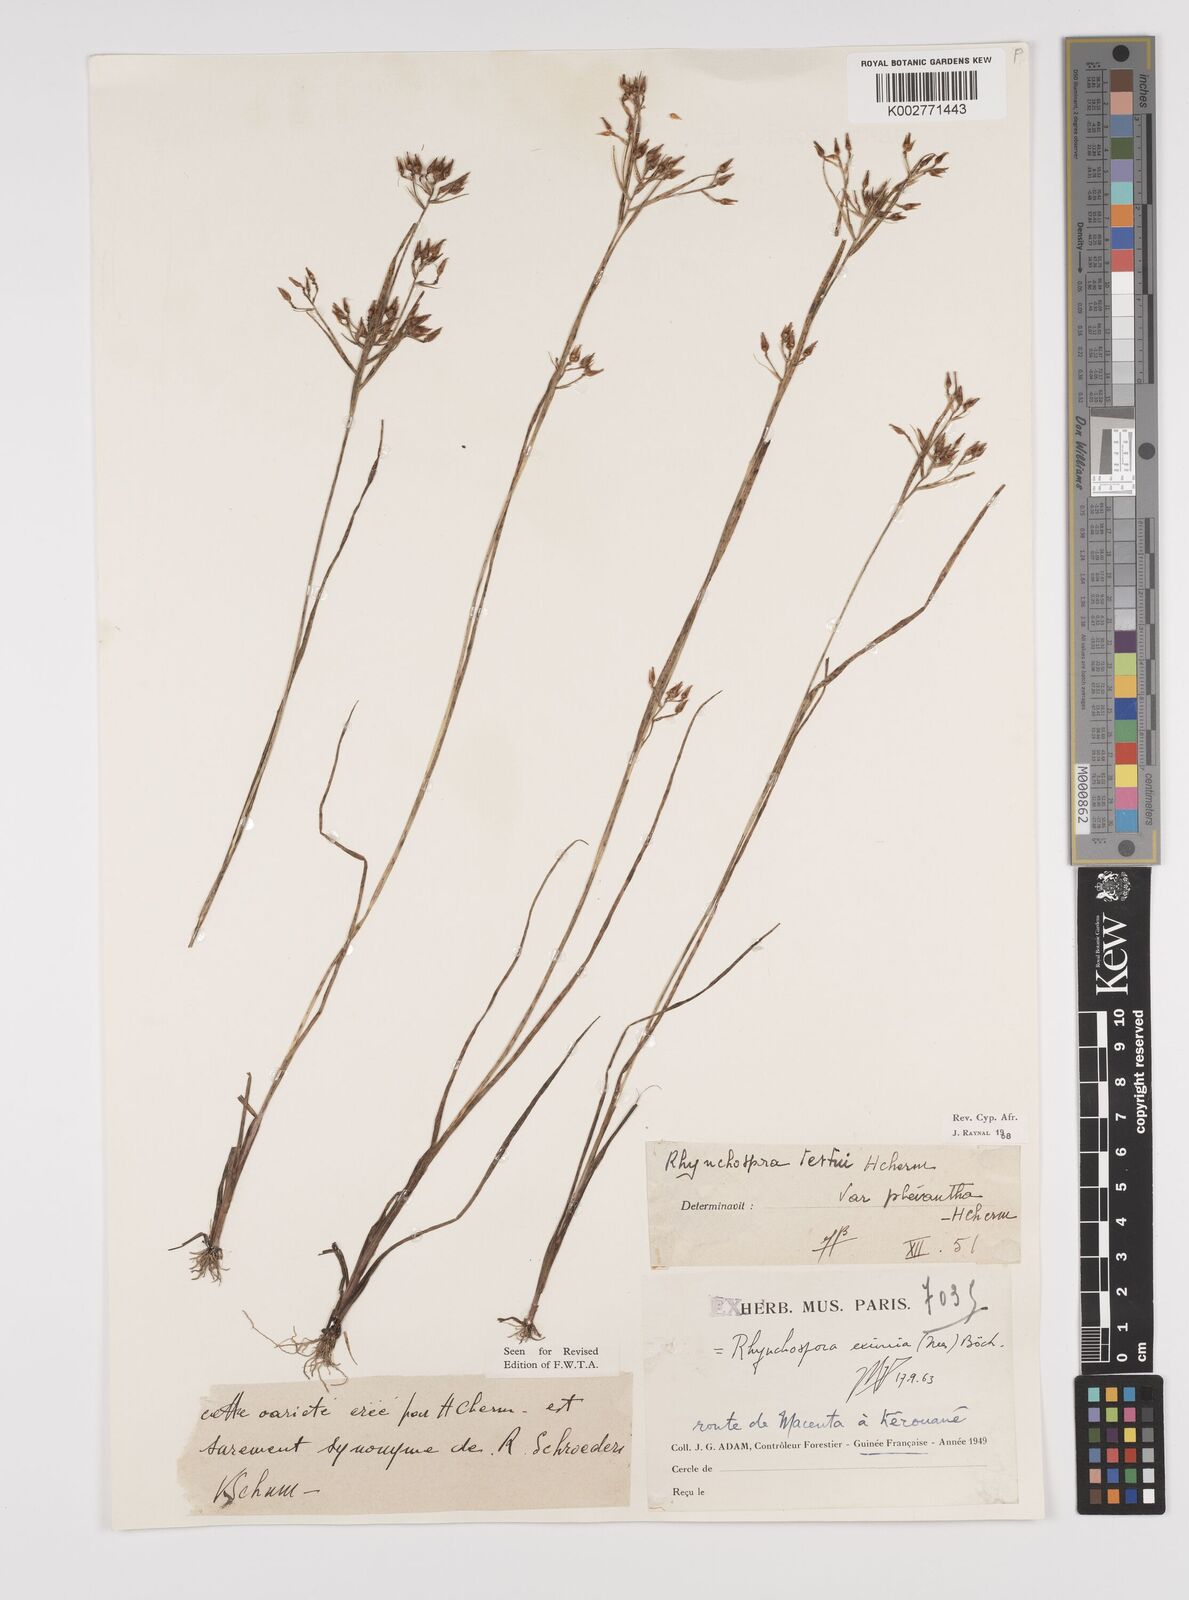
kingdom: Plantae
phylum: Tracheophyta
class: Liliopsida
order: Poales
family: Cyperaceae
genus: Rhynchospora
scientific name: Rhynchospora eximia
